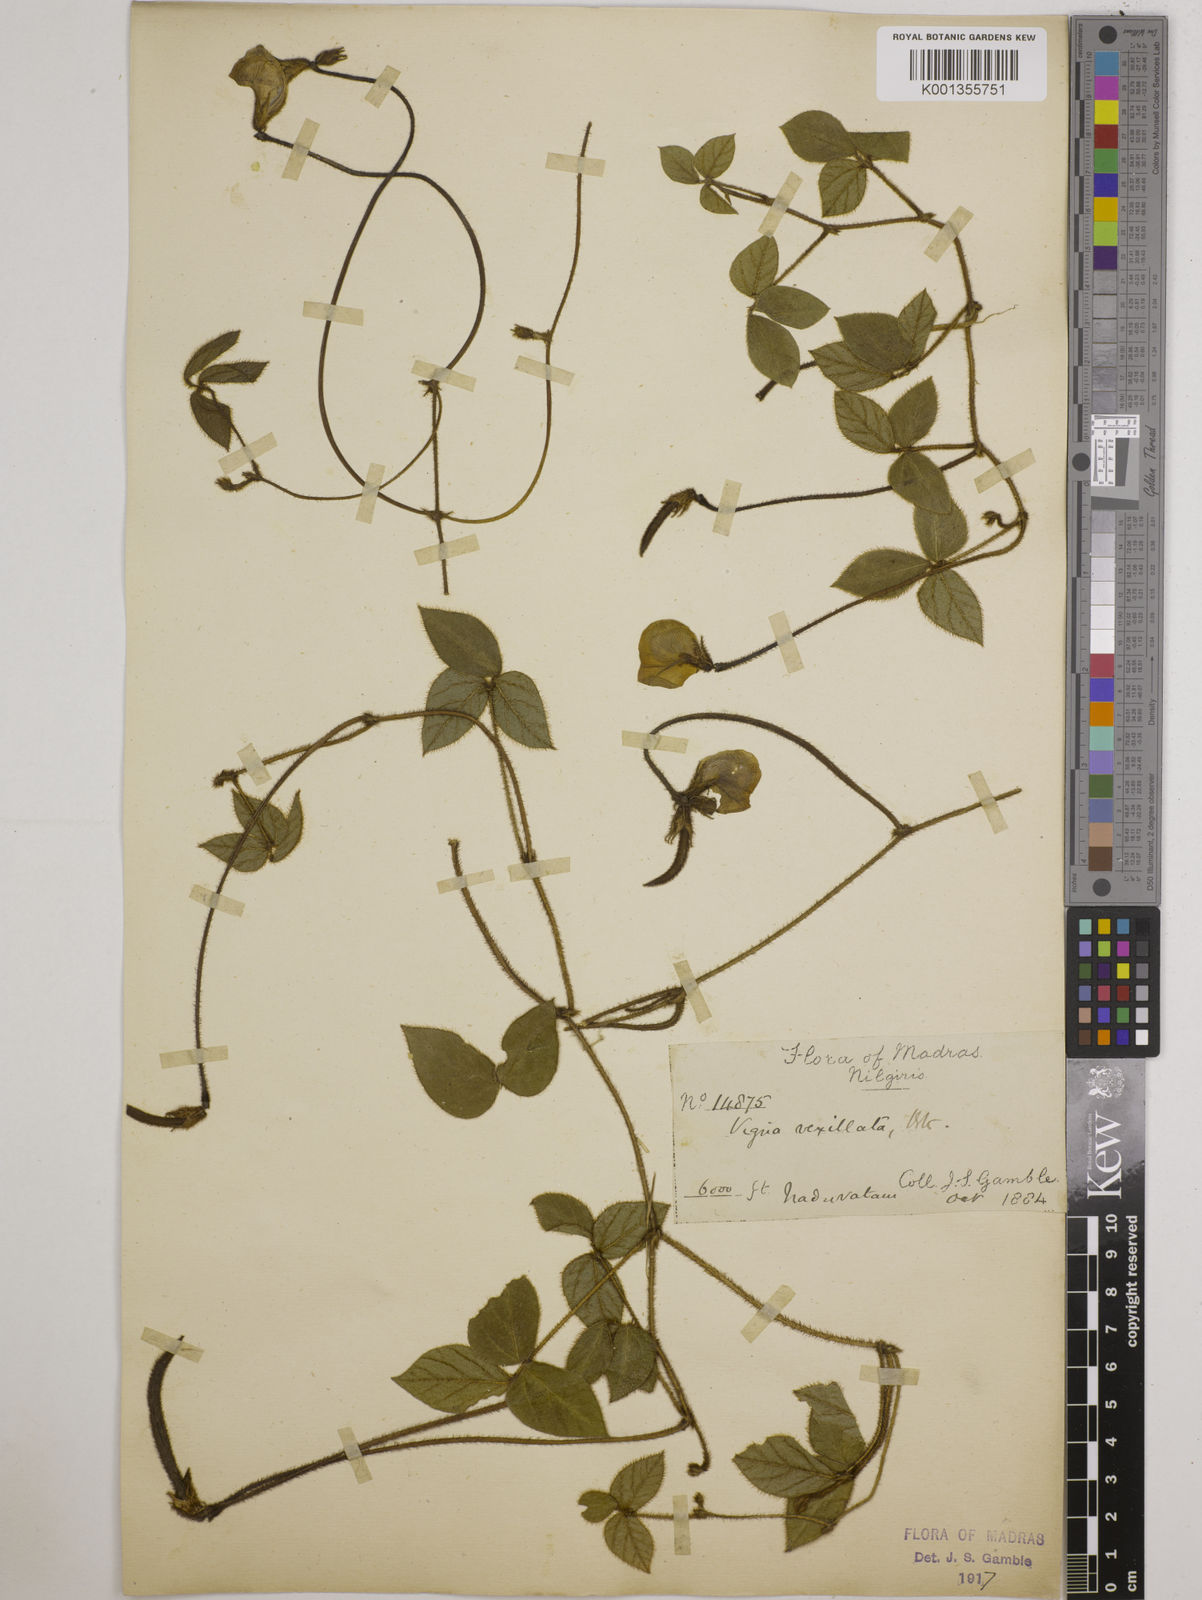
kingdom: Plantae
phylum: Tracheophyta
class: Magnoliopsida
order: Fabales
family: Fabaceae
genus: Vigna
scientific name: Vigna vexillata
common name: Zombi pea
